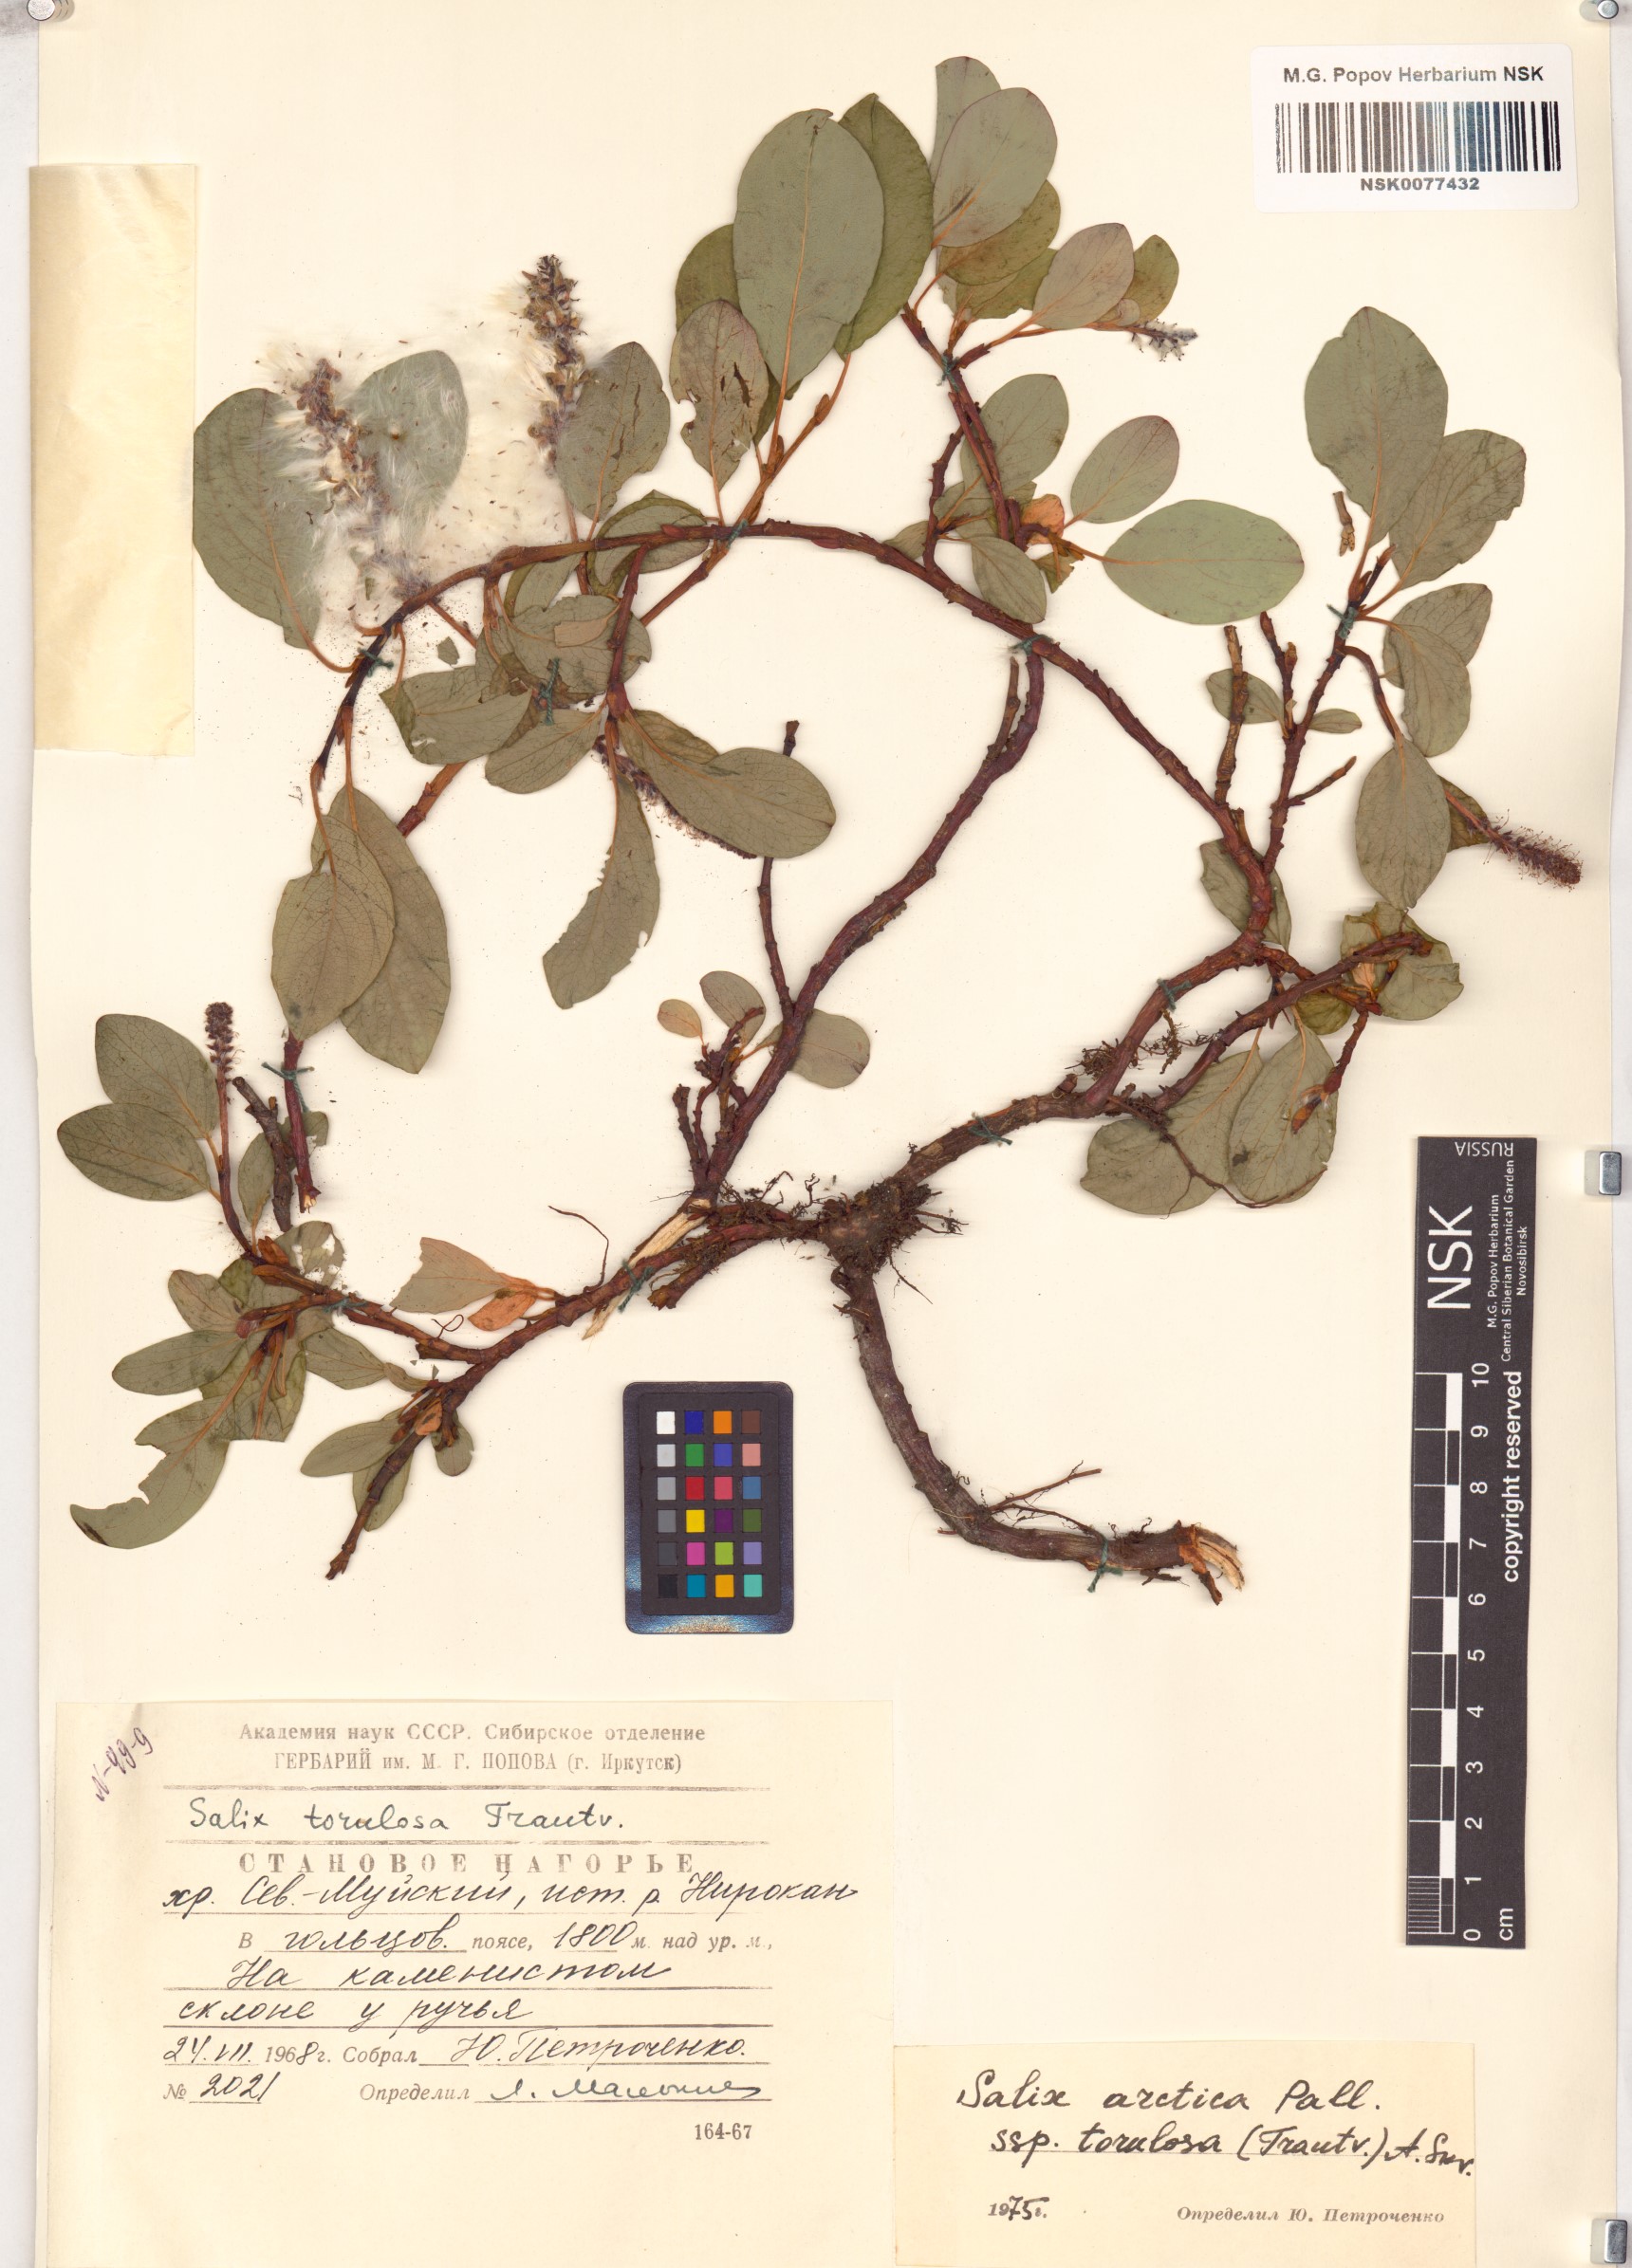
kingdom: Plantae
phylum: Tracheophyta
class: Magnoliopsida
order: Malpighiales
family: Salicaceae
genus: Salix
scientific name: Salix arctica
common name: Arctic willow
